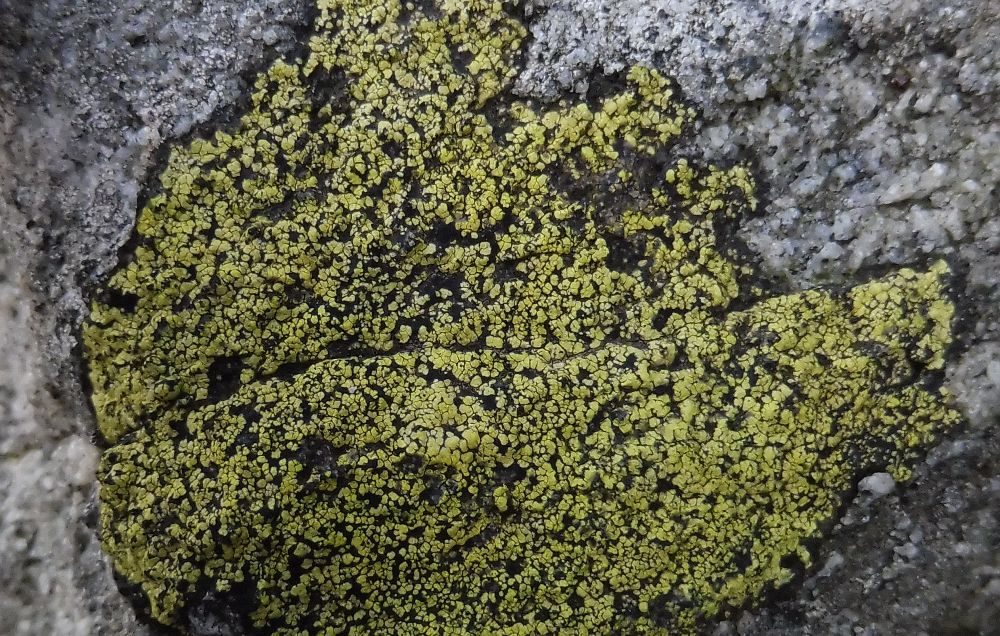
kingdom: Fungi
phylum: Ascomycota
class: Lecanoromycetes
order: Rhizocarpales
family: Rhizocarpaceae
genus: Rhizocarpon
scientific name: Rhizocarpon geographicum
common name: gulgrøn landkortlav
